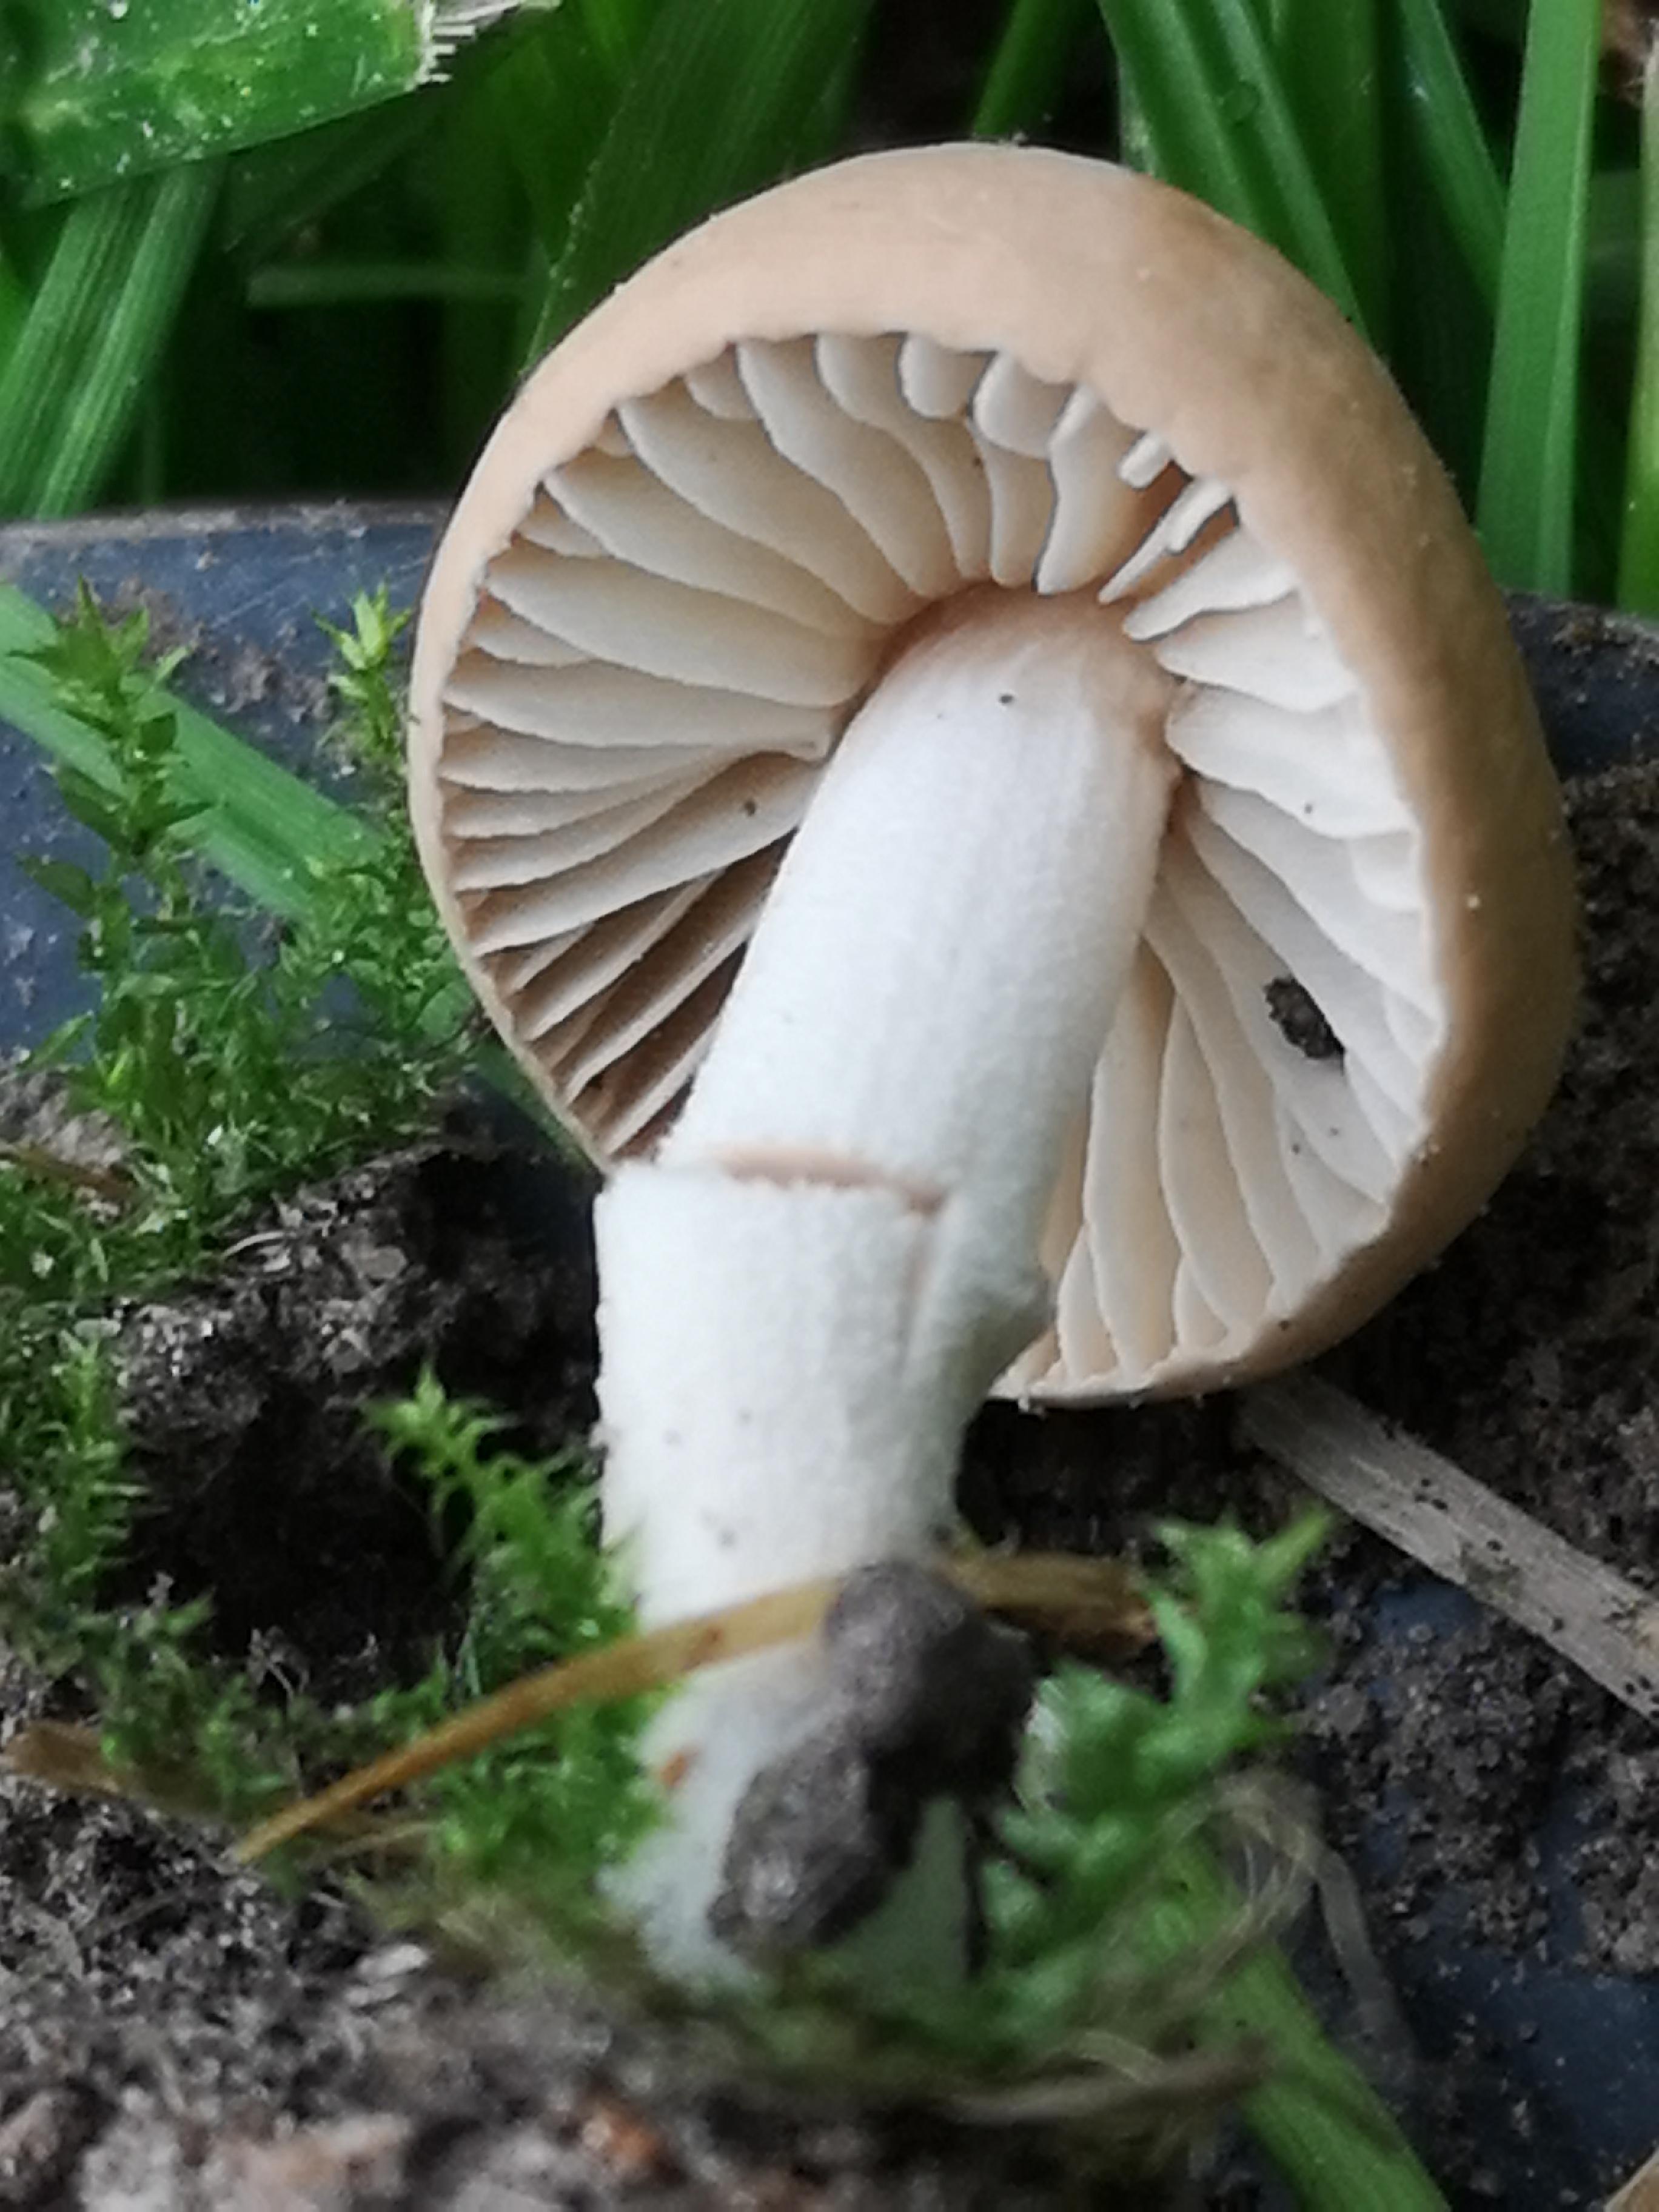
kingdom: Fungi
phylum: Basidiomycota
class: Agaricomycetes
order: Agaricales
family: Marasmiaceae
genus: Marasmius
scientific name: Marasmius oreades
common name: elledans-bruskhat
